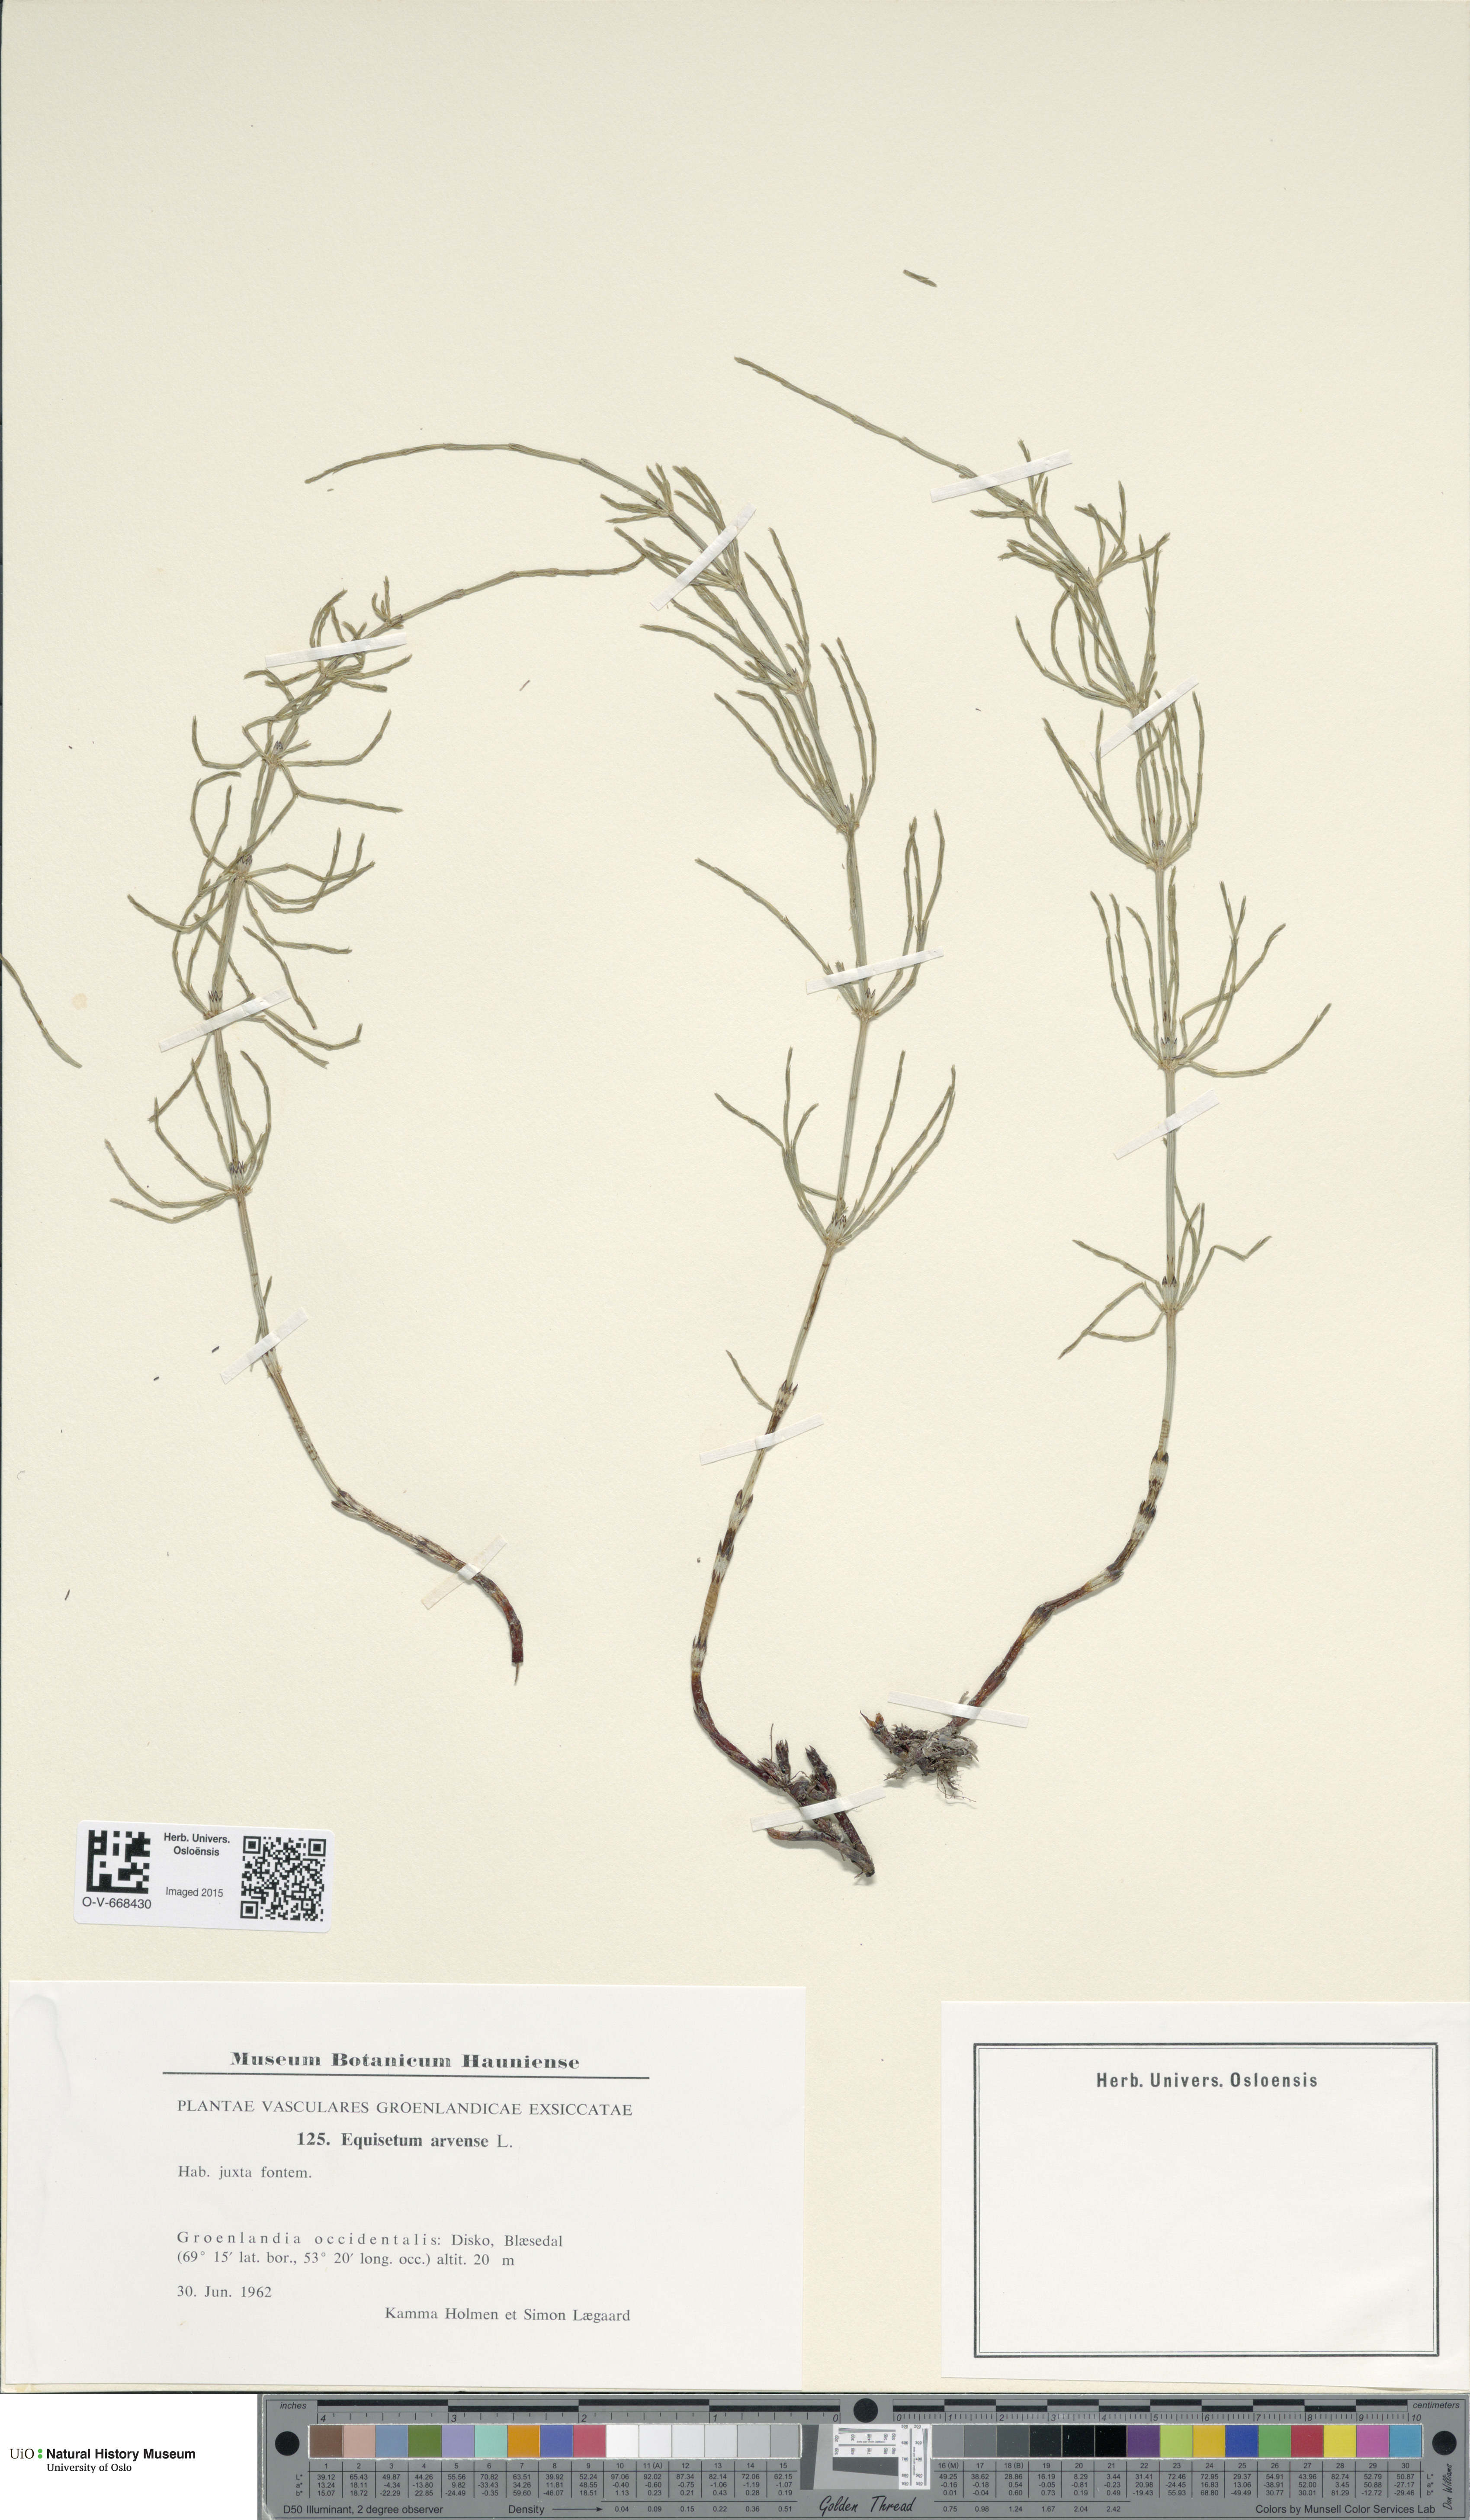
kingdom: Plantae
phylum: Tracheophyta
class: Polypodiopsida
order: Equisetales
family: Equisetaceae
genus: Equisetum
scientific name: Equisetum arvense
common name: Field horsetail
